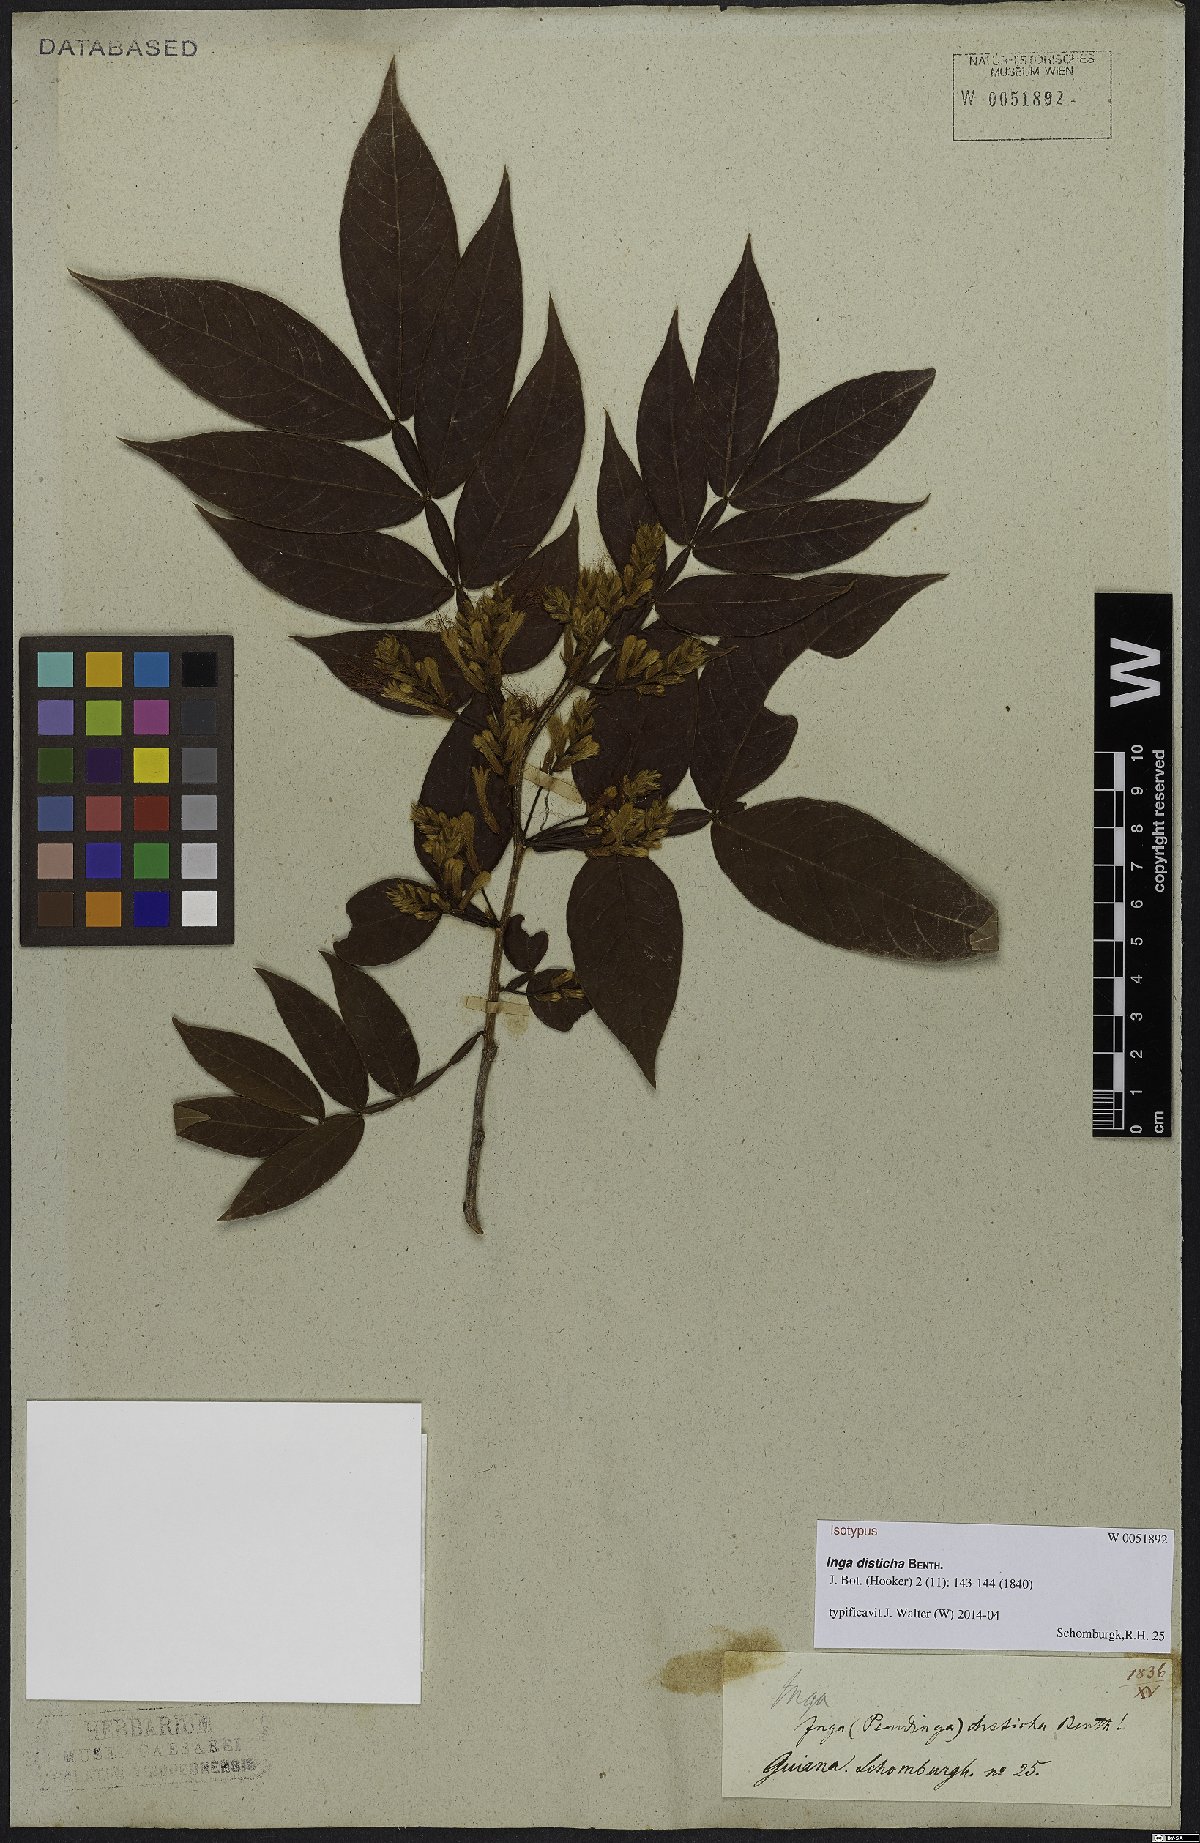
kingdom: Plantae
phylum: Tracheophyta
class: Magnoliopsida
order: Fabales
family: Fabaceae
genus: Inga
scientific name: Inga disticha
